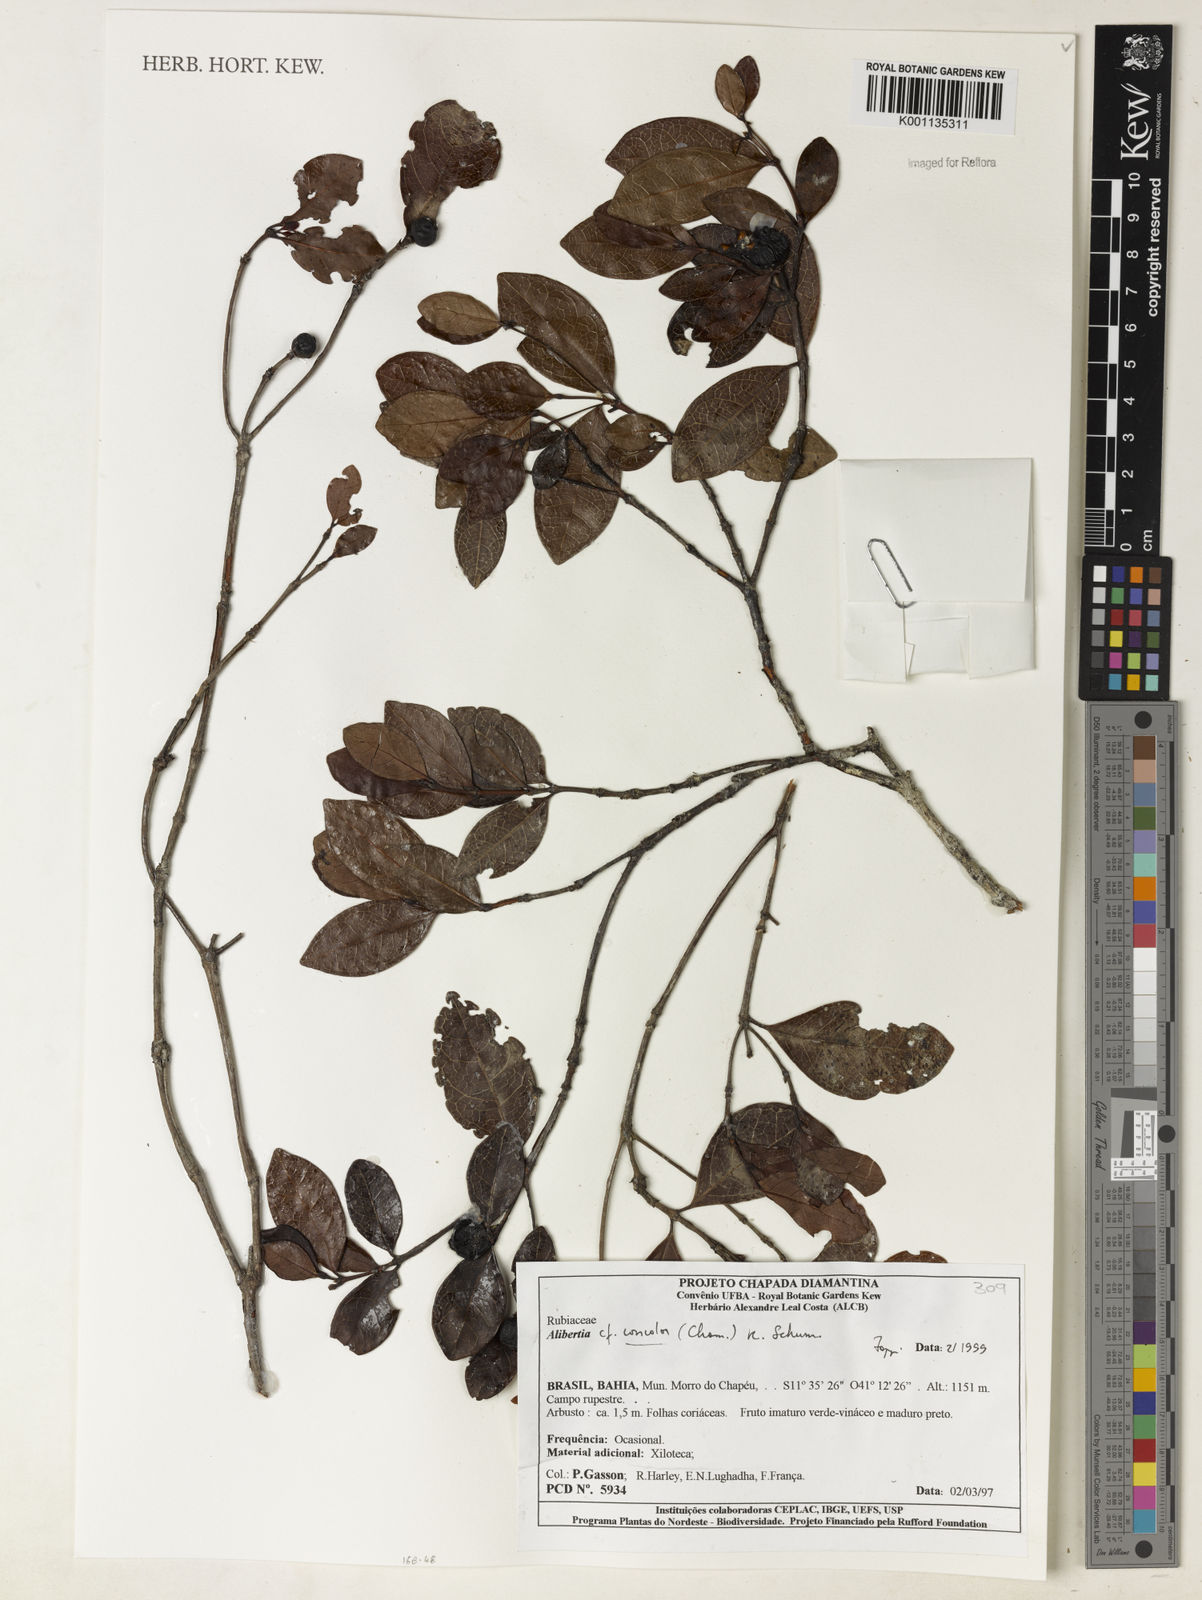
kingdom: Plantae
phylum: Tracheophyta
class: Magnoliopsida
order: Gentianales
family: Rubiaceae
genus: Cordiera
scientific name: Cordiera concolor
